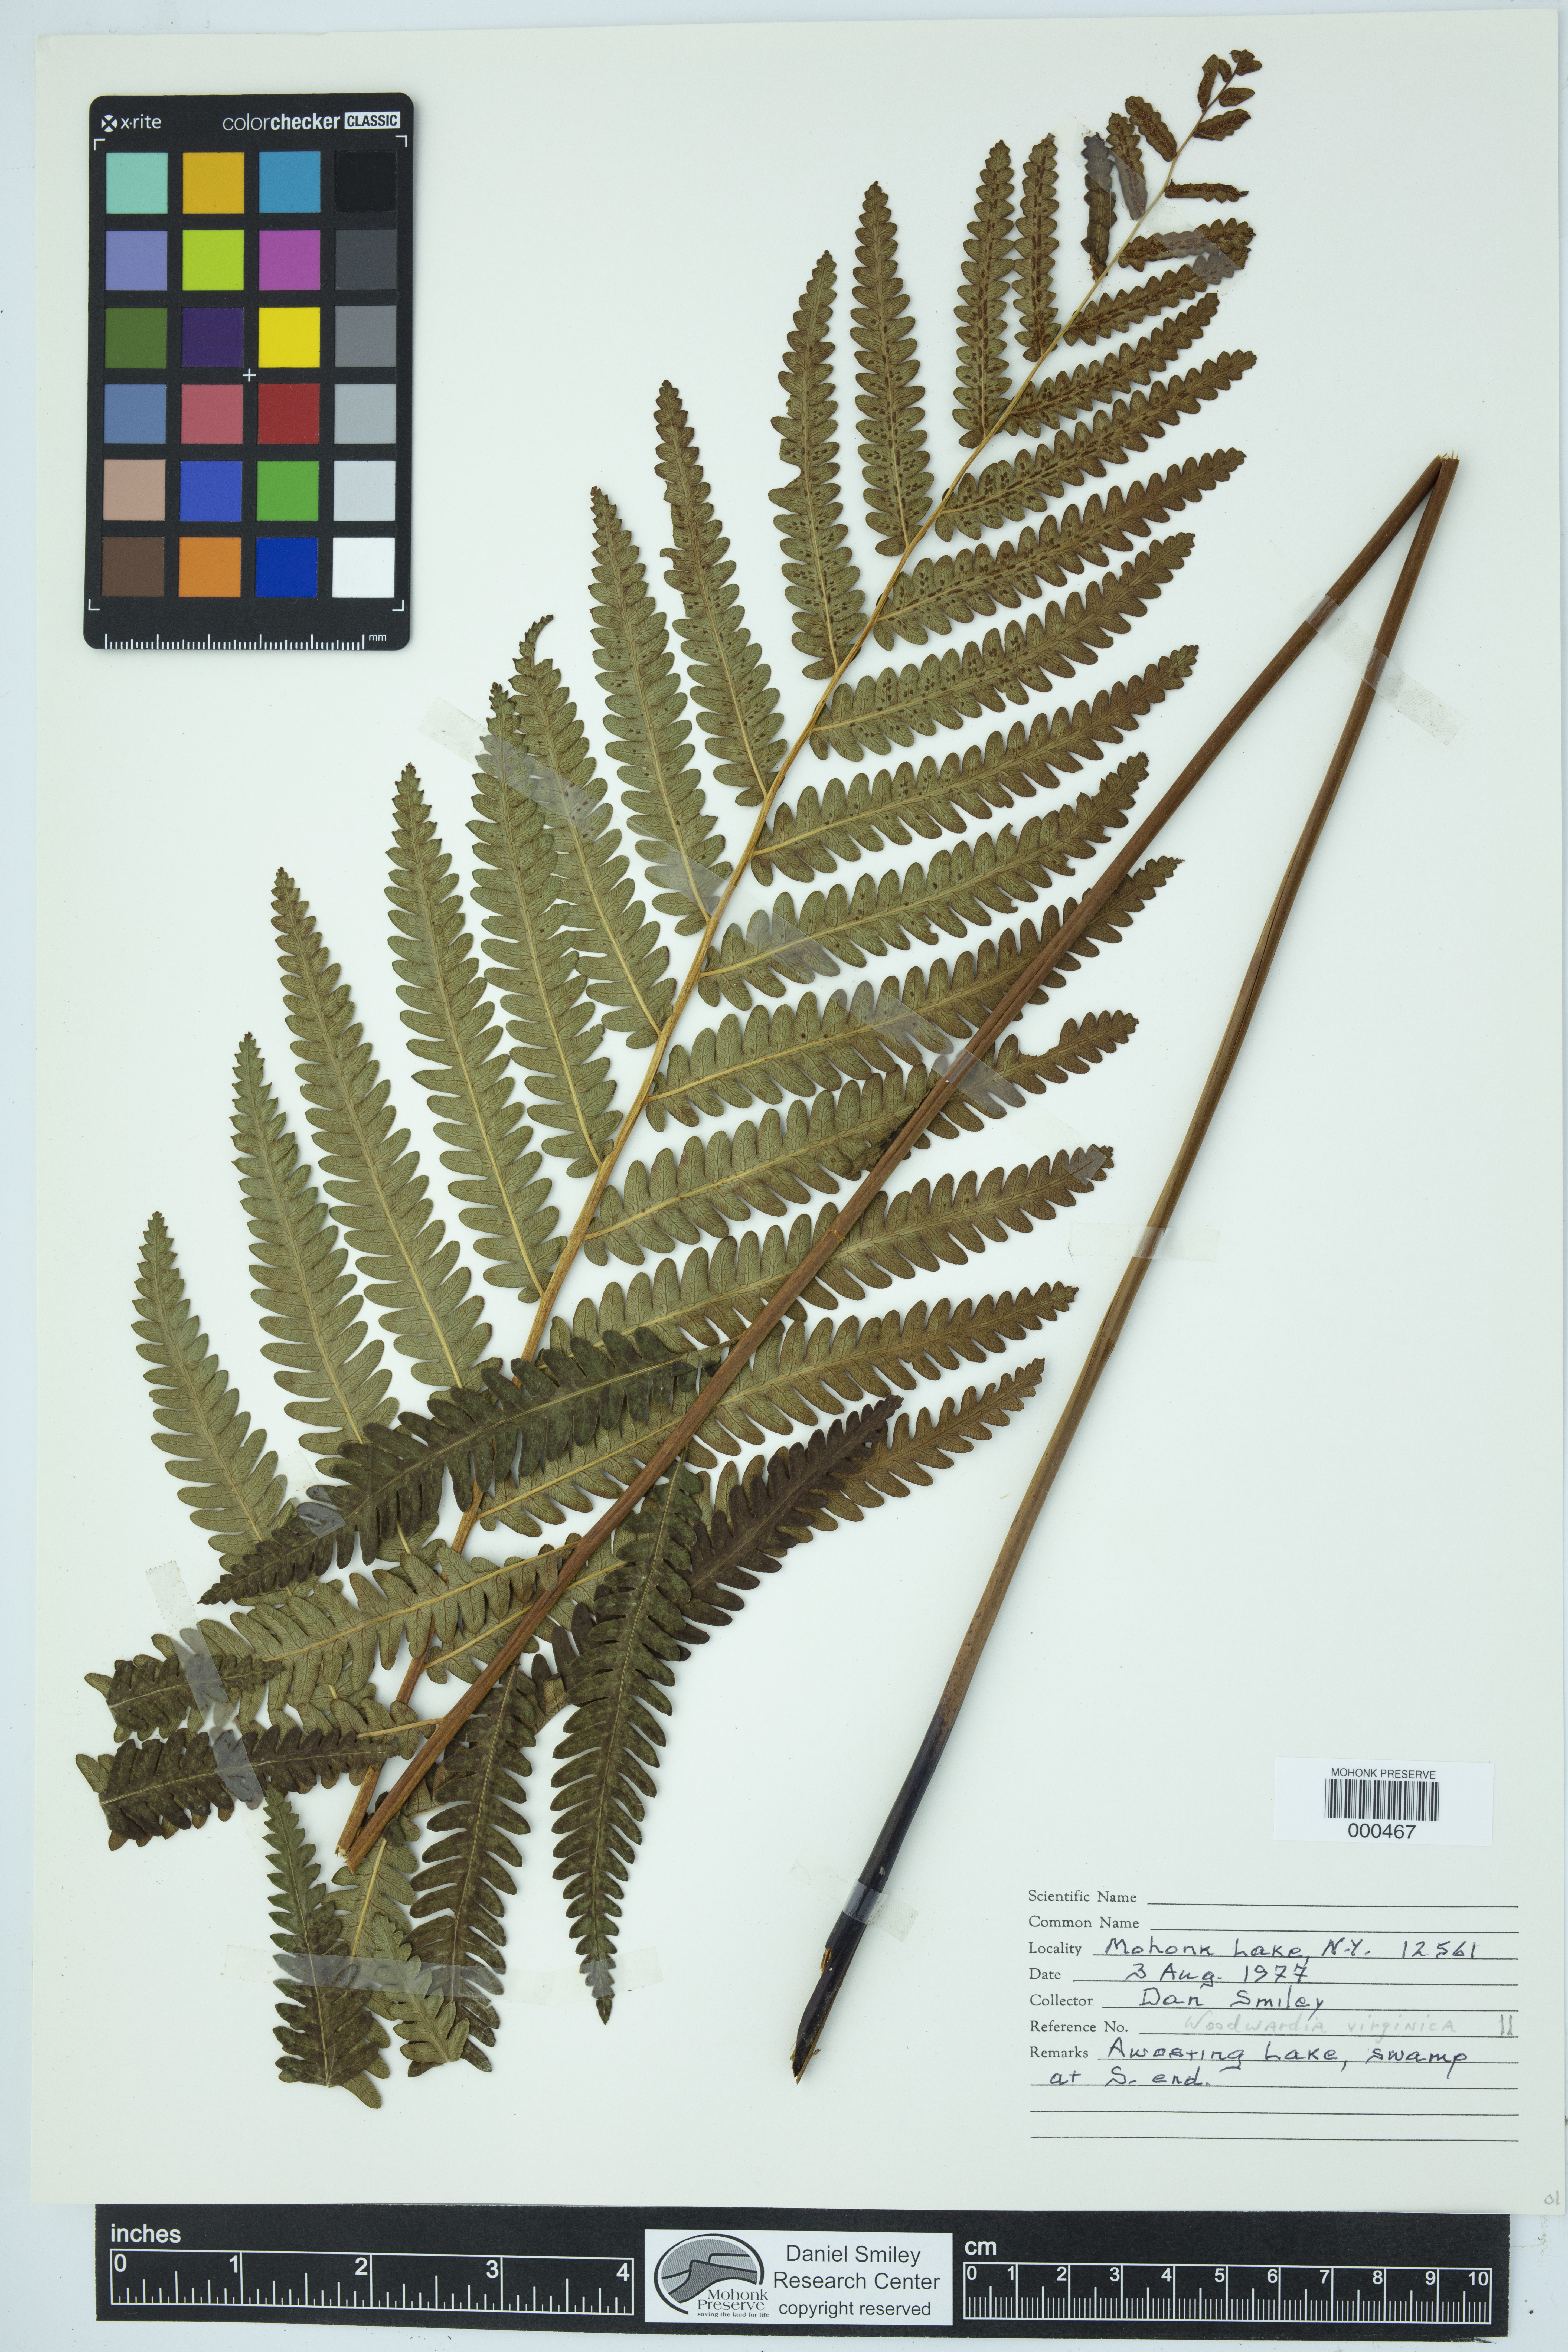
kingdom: Plantae
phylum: Tracheophyta
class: Polypodiopsida
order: Polypodiales
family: Blechnaceae
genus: Anchistea
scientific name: Anchistea virginica
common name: Virginia chain fern
